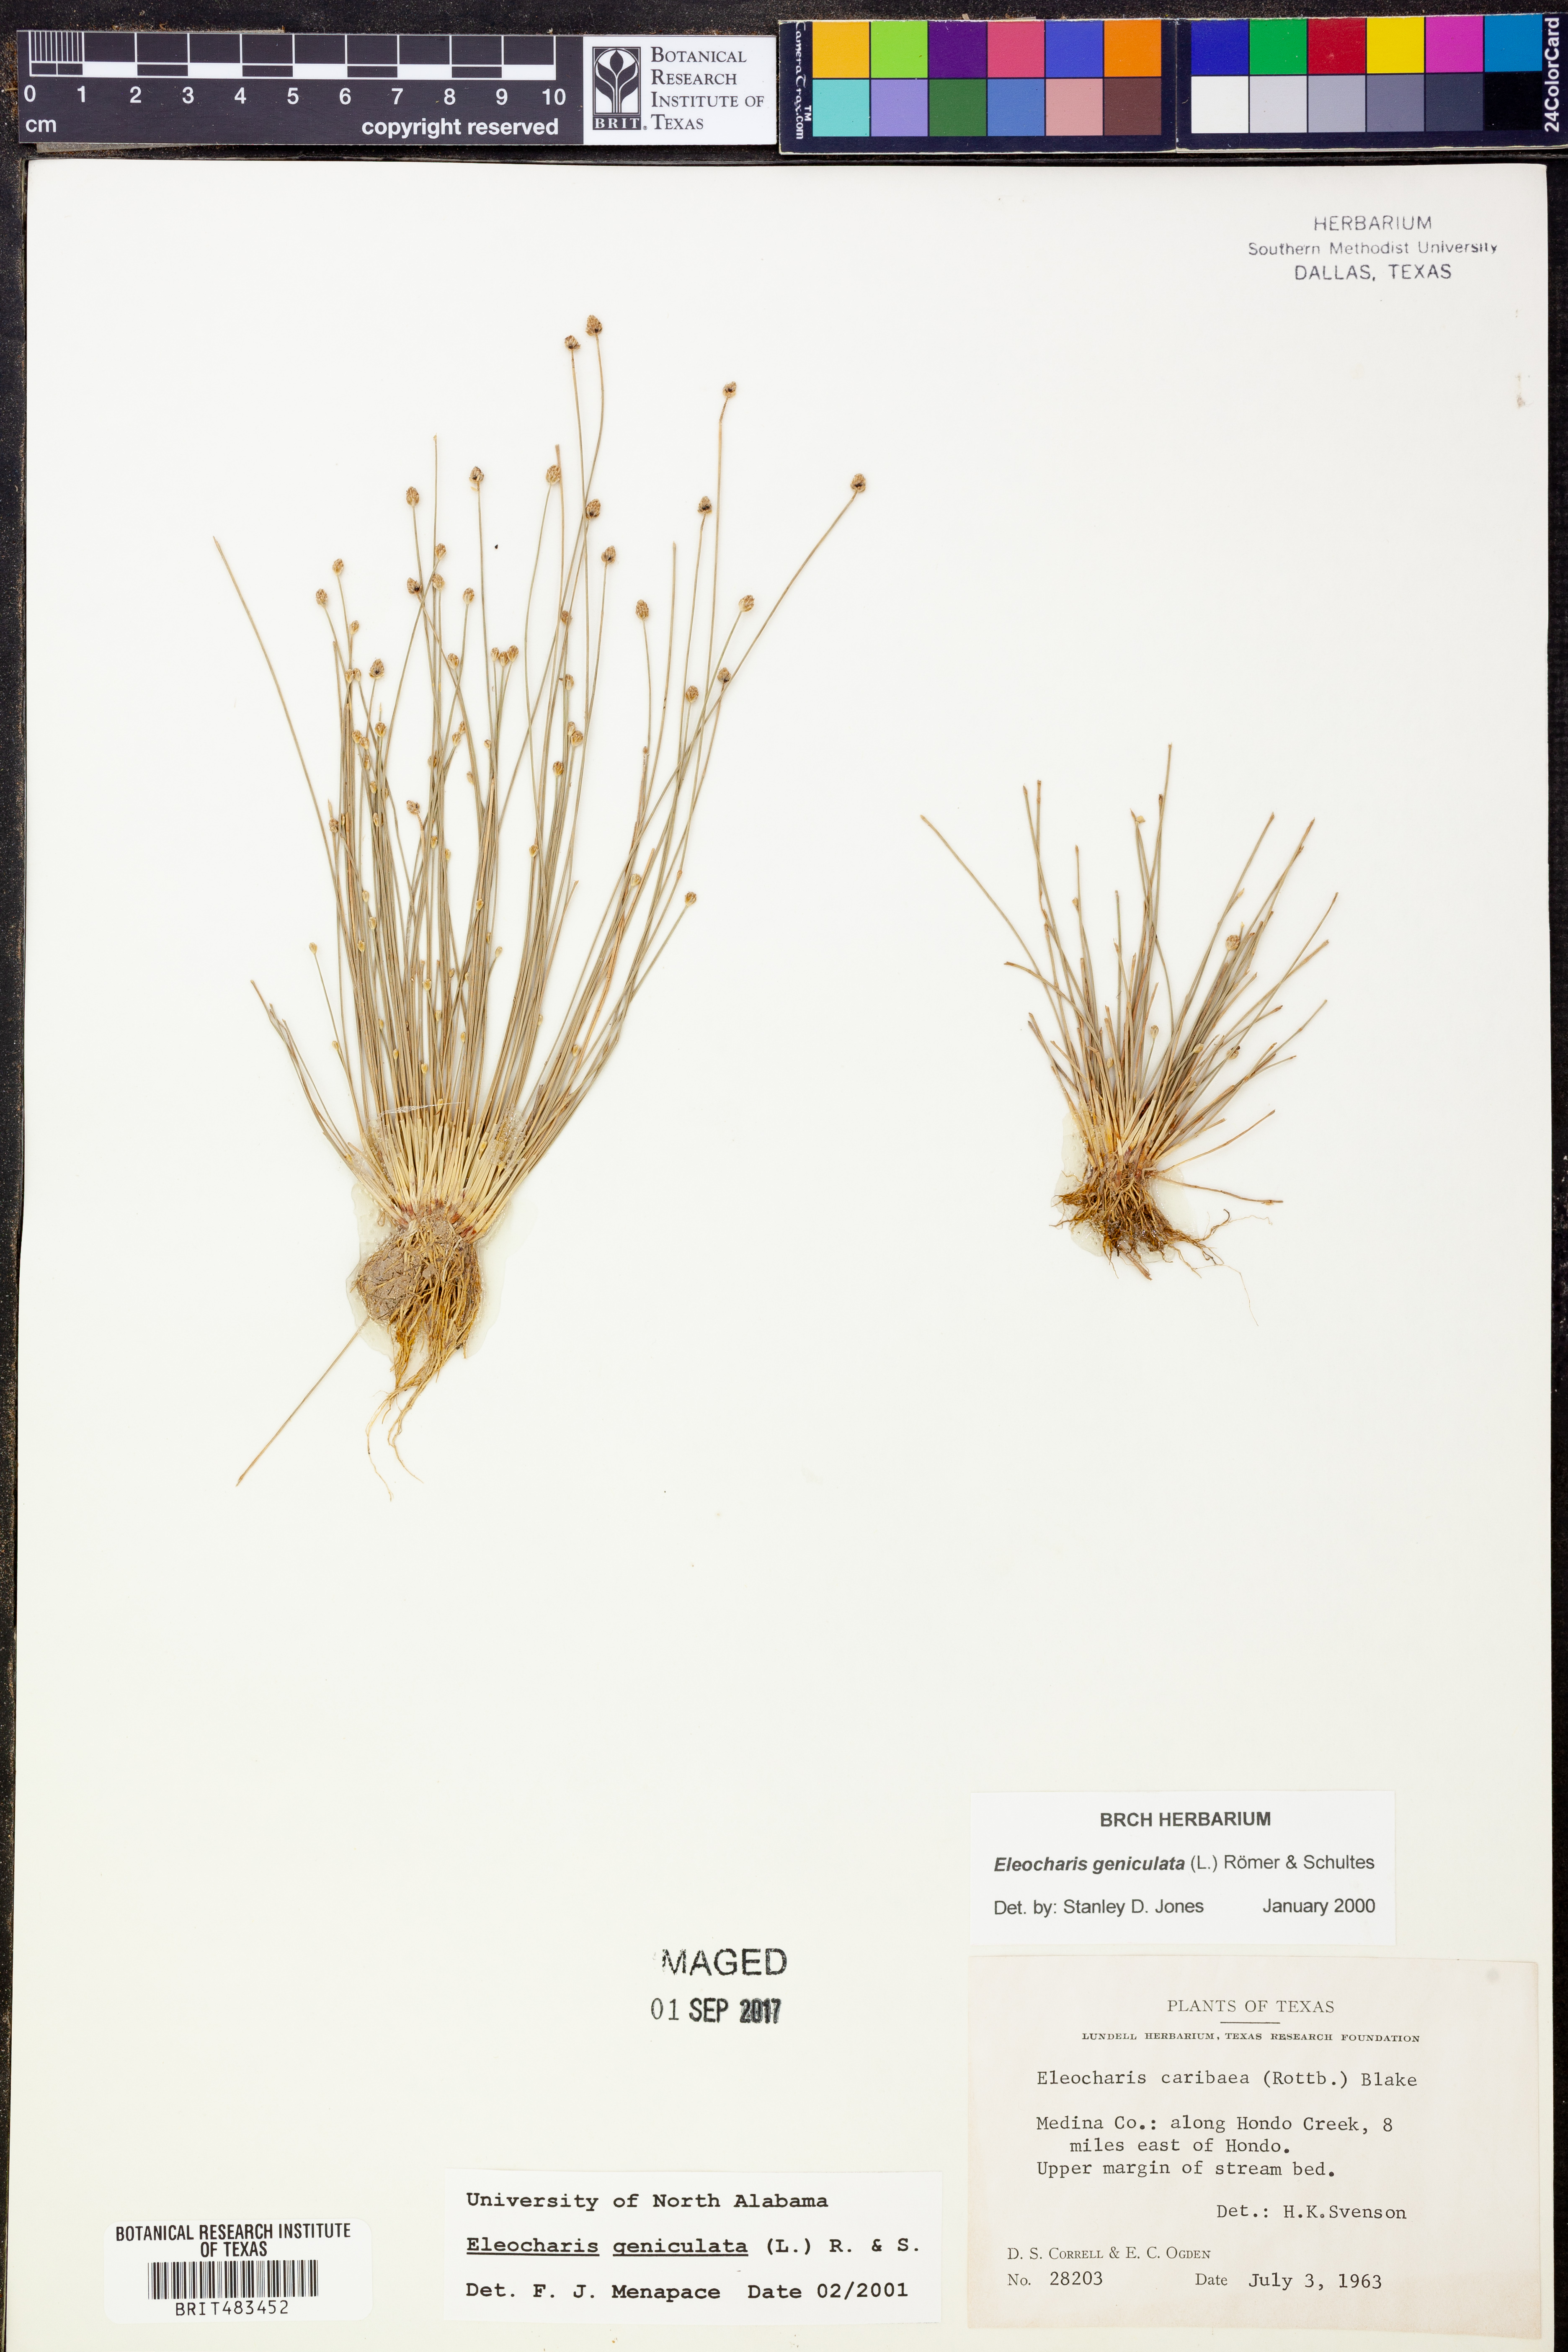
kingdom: Plantae
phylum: Tracheophyta
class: Liliopsida
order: Poales
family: Cyperaceae
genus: Eleocharis
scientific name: Eleocharis geniculata
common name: Canada spikesedge
